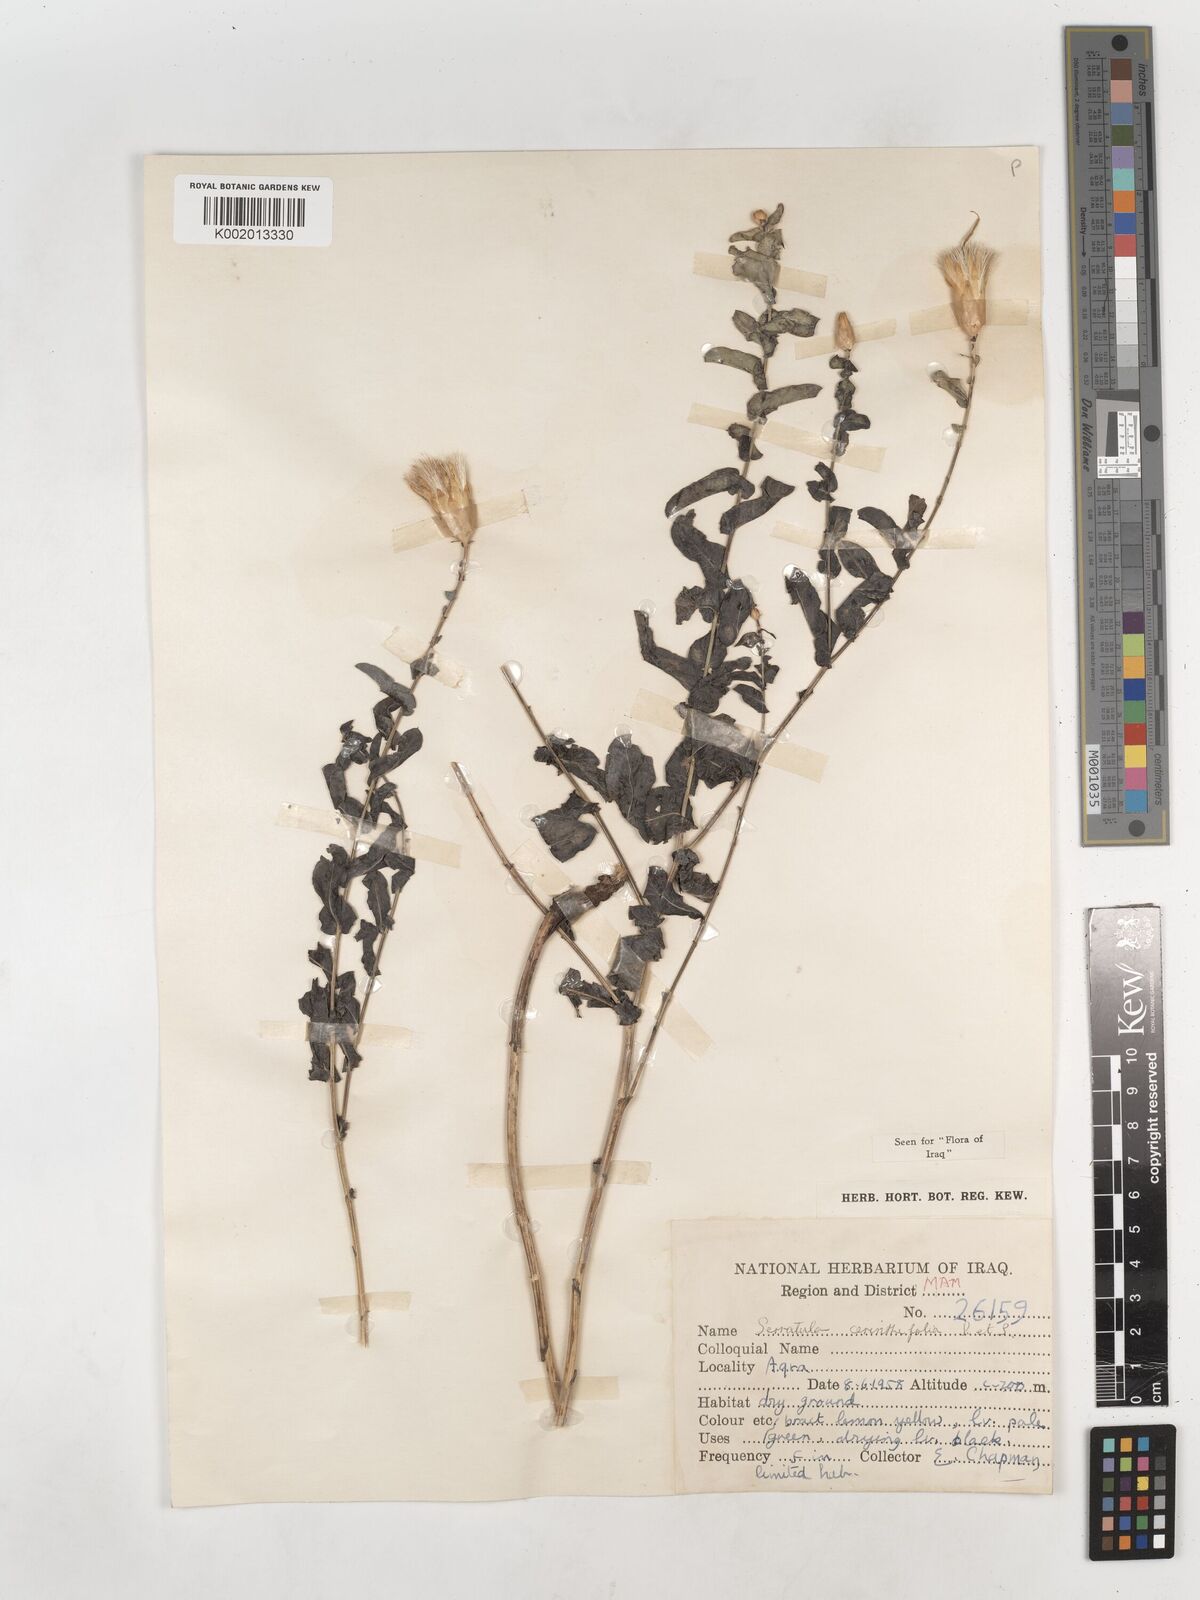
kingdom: Plantae
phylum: Tracheophyta
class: Magnoliopsida
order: Asterales
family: Asteraceae
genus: Klasea
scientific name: Klasea cerinthifolia
